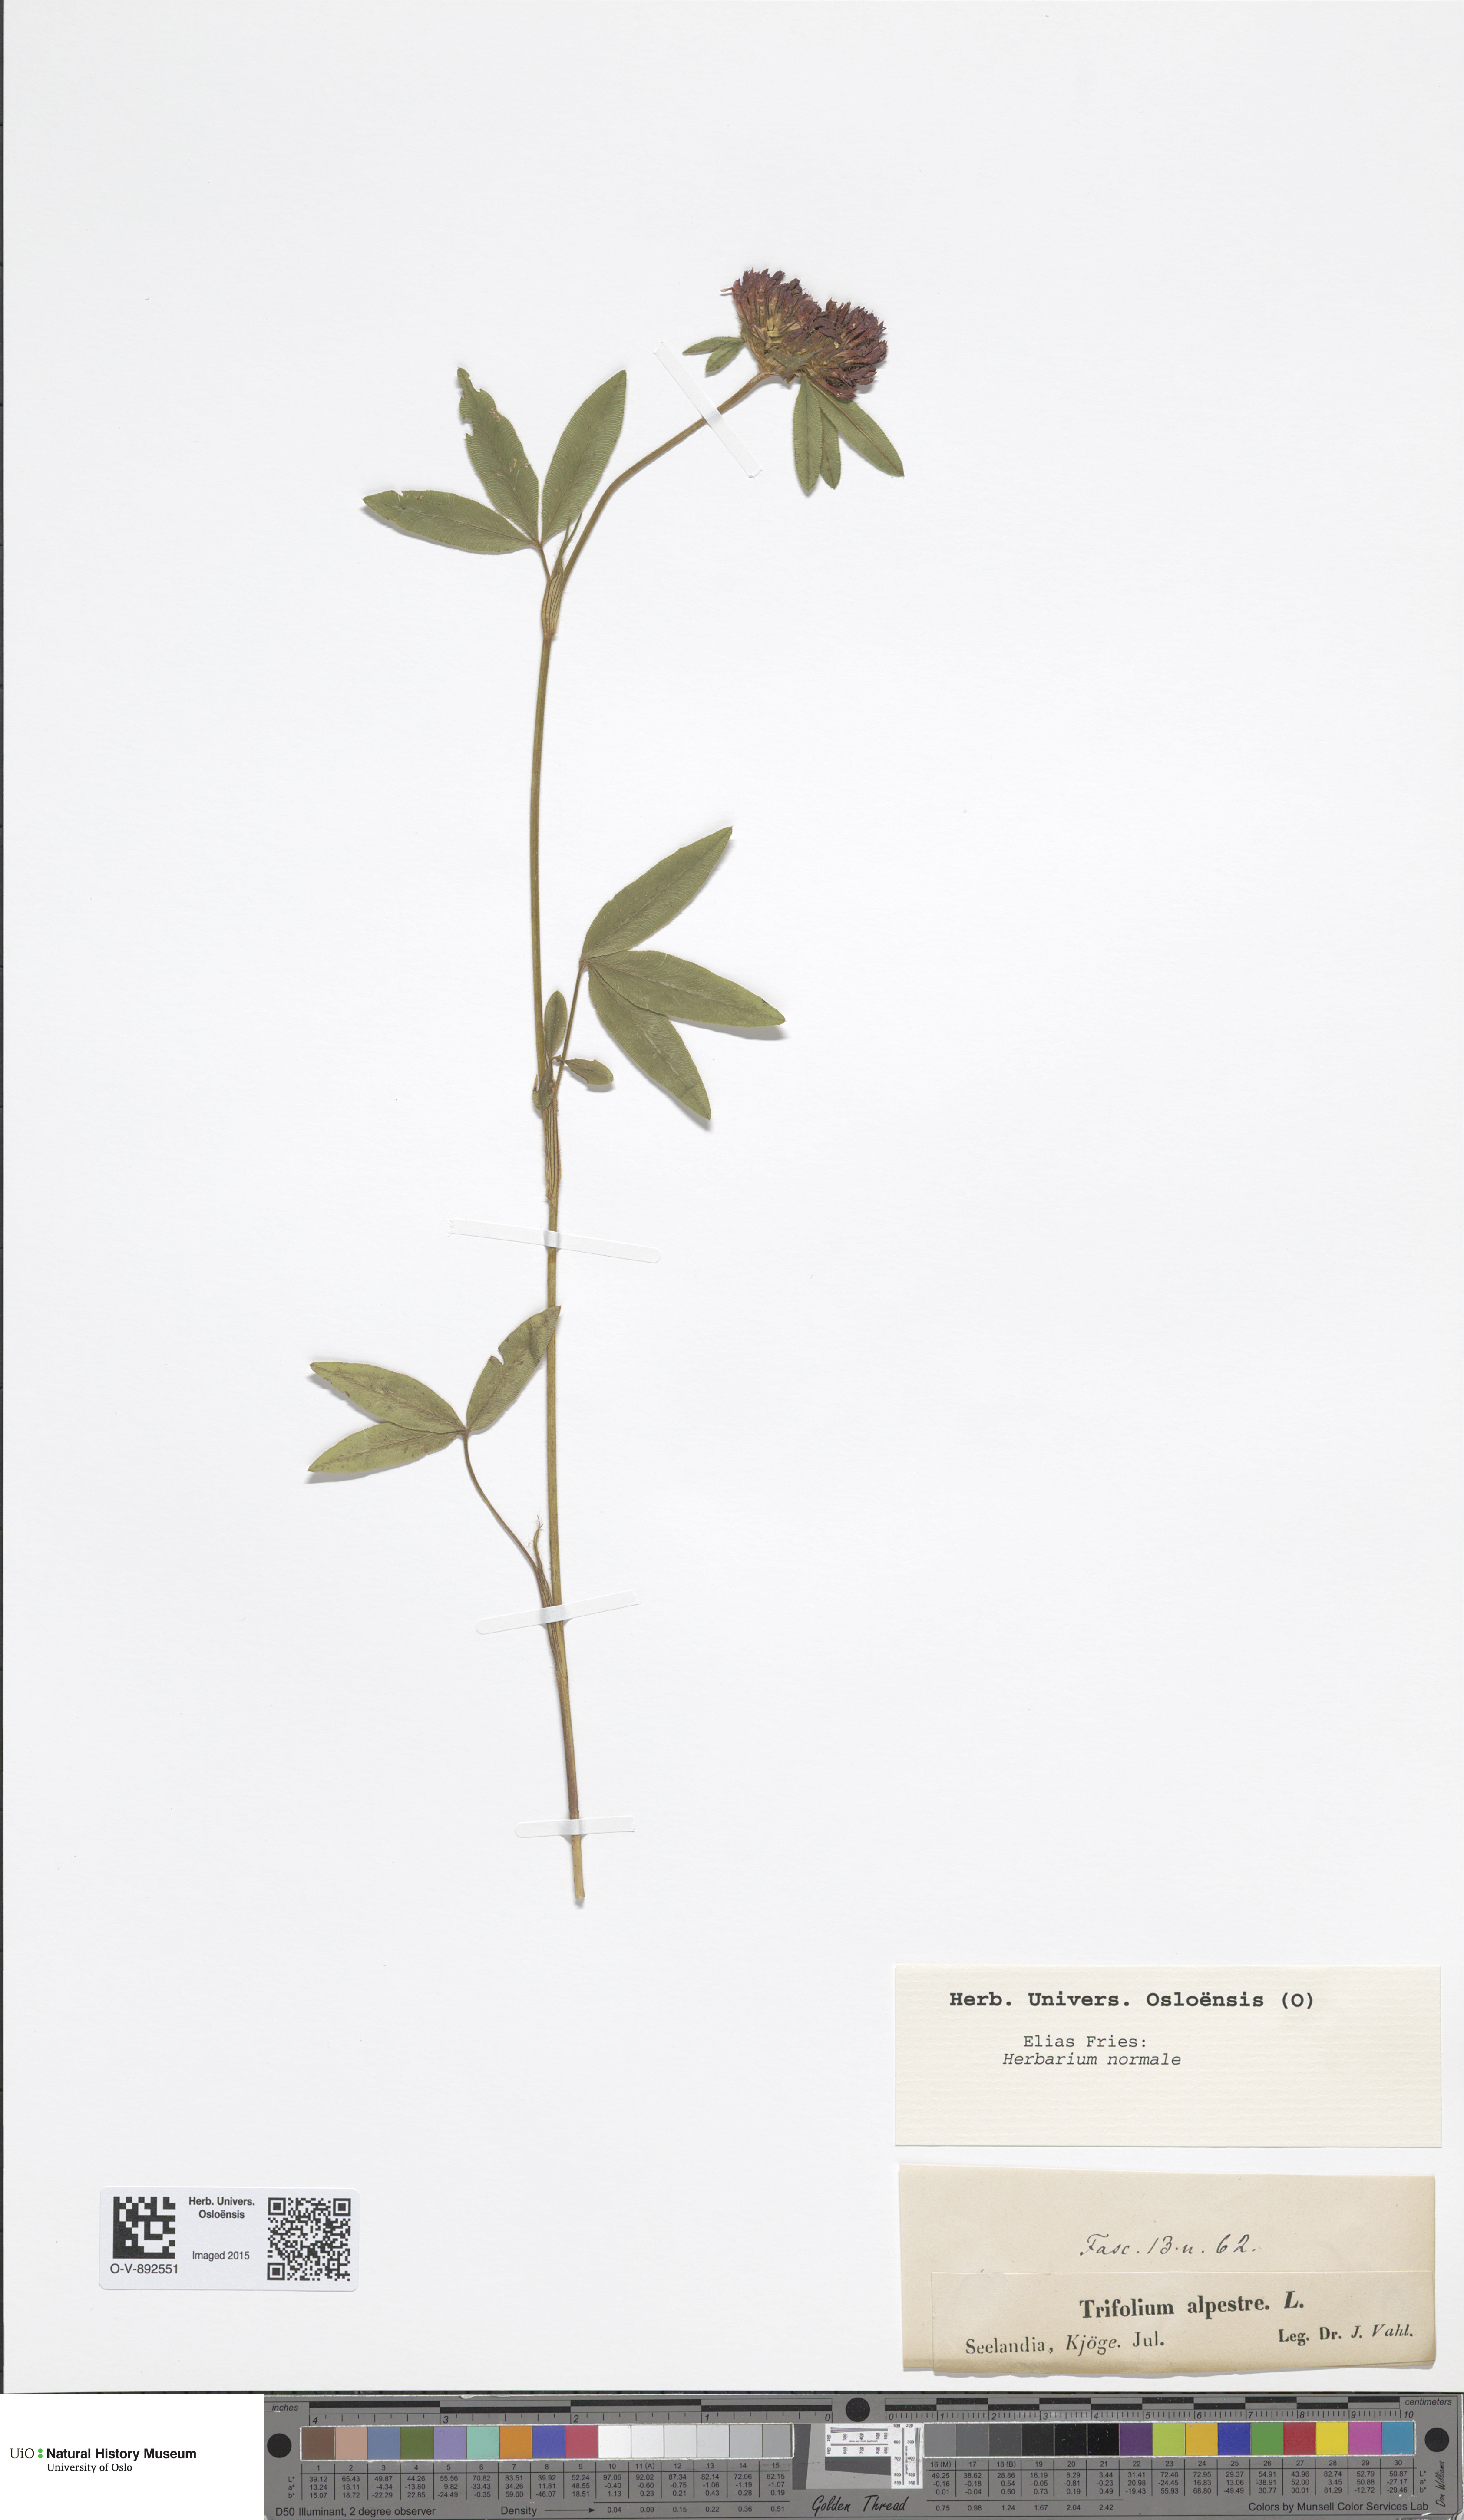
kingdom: Plantae
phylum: Tracheophyta
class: Magnoliopsida
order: Fabales
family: Fabaceae
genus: Trifolium
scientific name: Trifolium alpestre
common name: Owl-head clover
